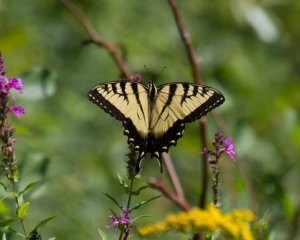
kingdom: Animalia
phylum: Arthropoda
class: Insecta
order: Lepidoptera
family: Papilionidae
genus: Pterourus
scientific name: Pterourus glaucus
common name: Eastern Tiger Swallowtail
